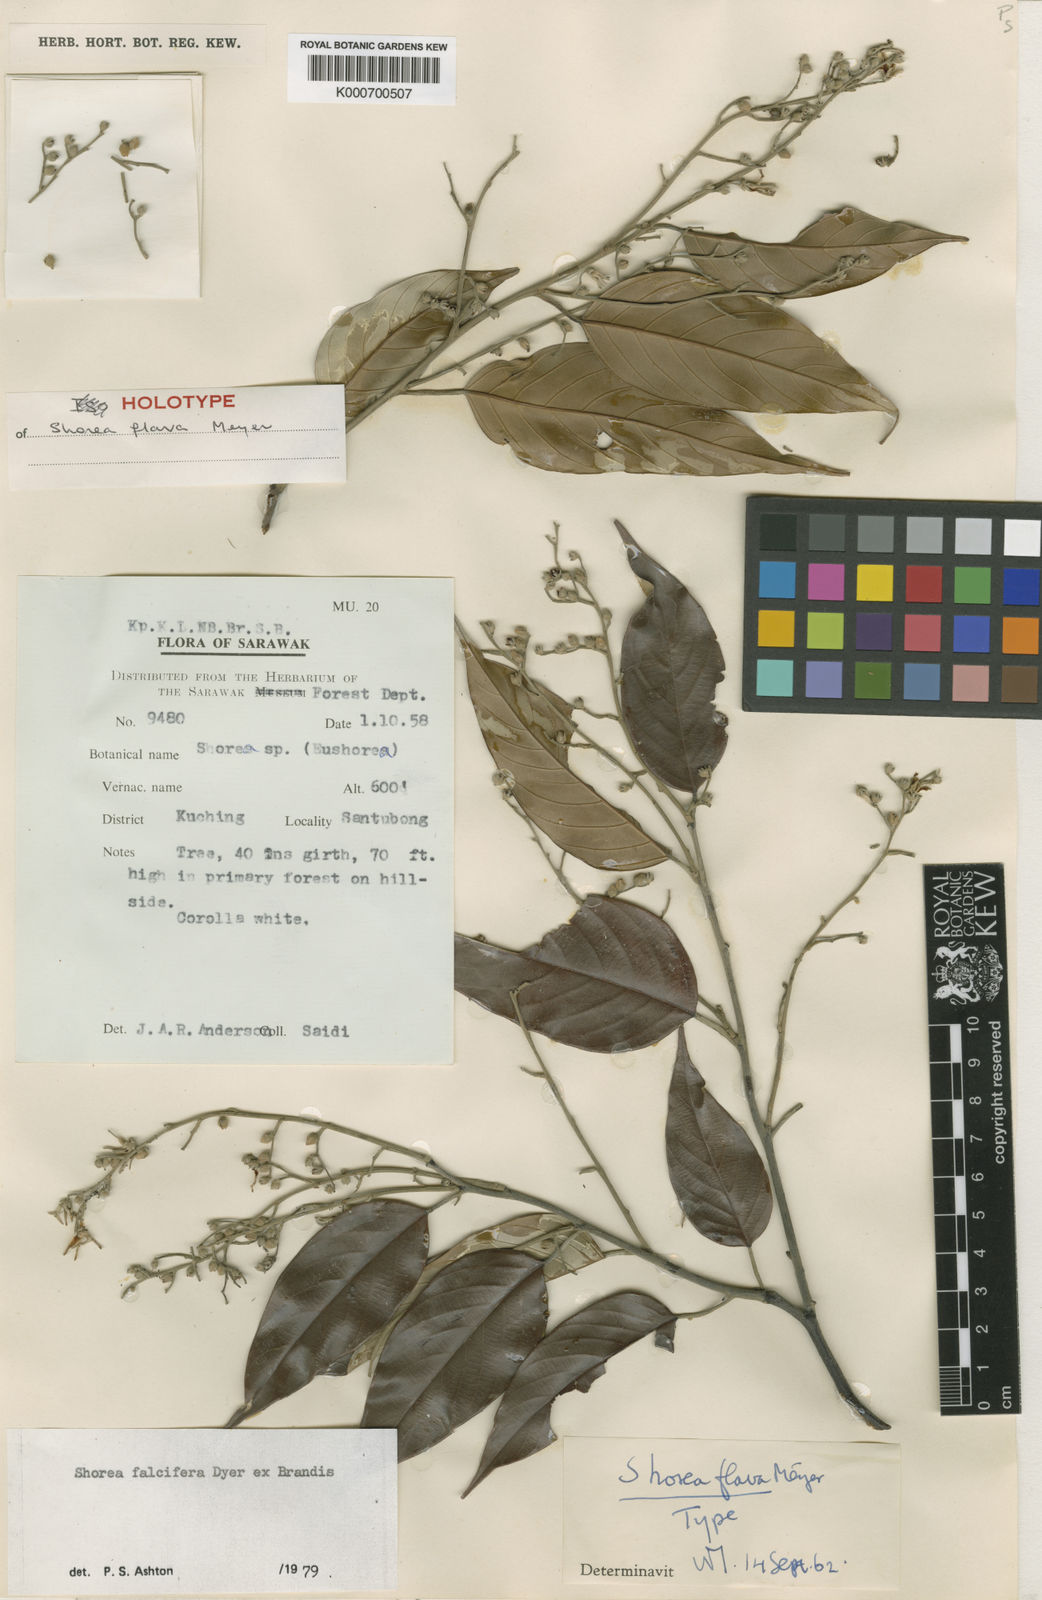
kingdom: Plantae
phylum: Tracheophyta
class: Magnoliopsida
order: Malvales
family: Dipterocarpaceae
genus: Shorea
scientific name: Shorea falcifera
